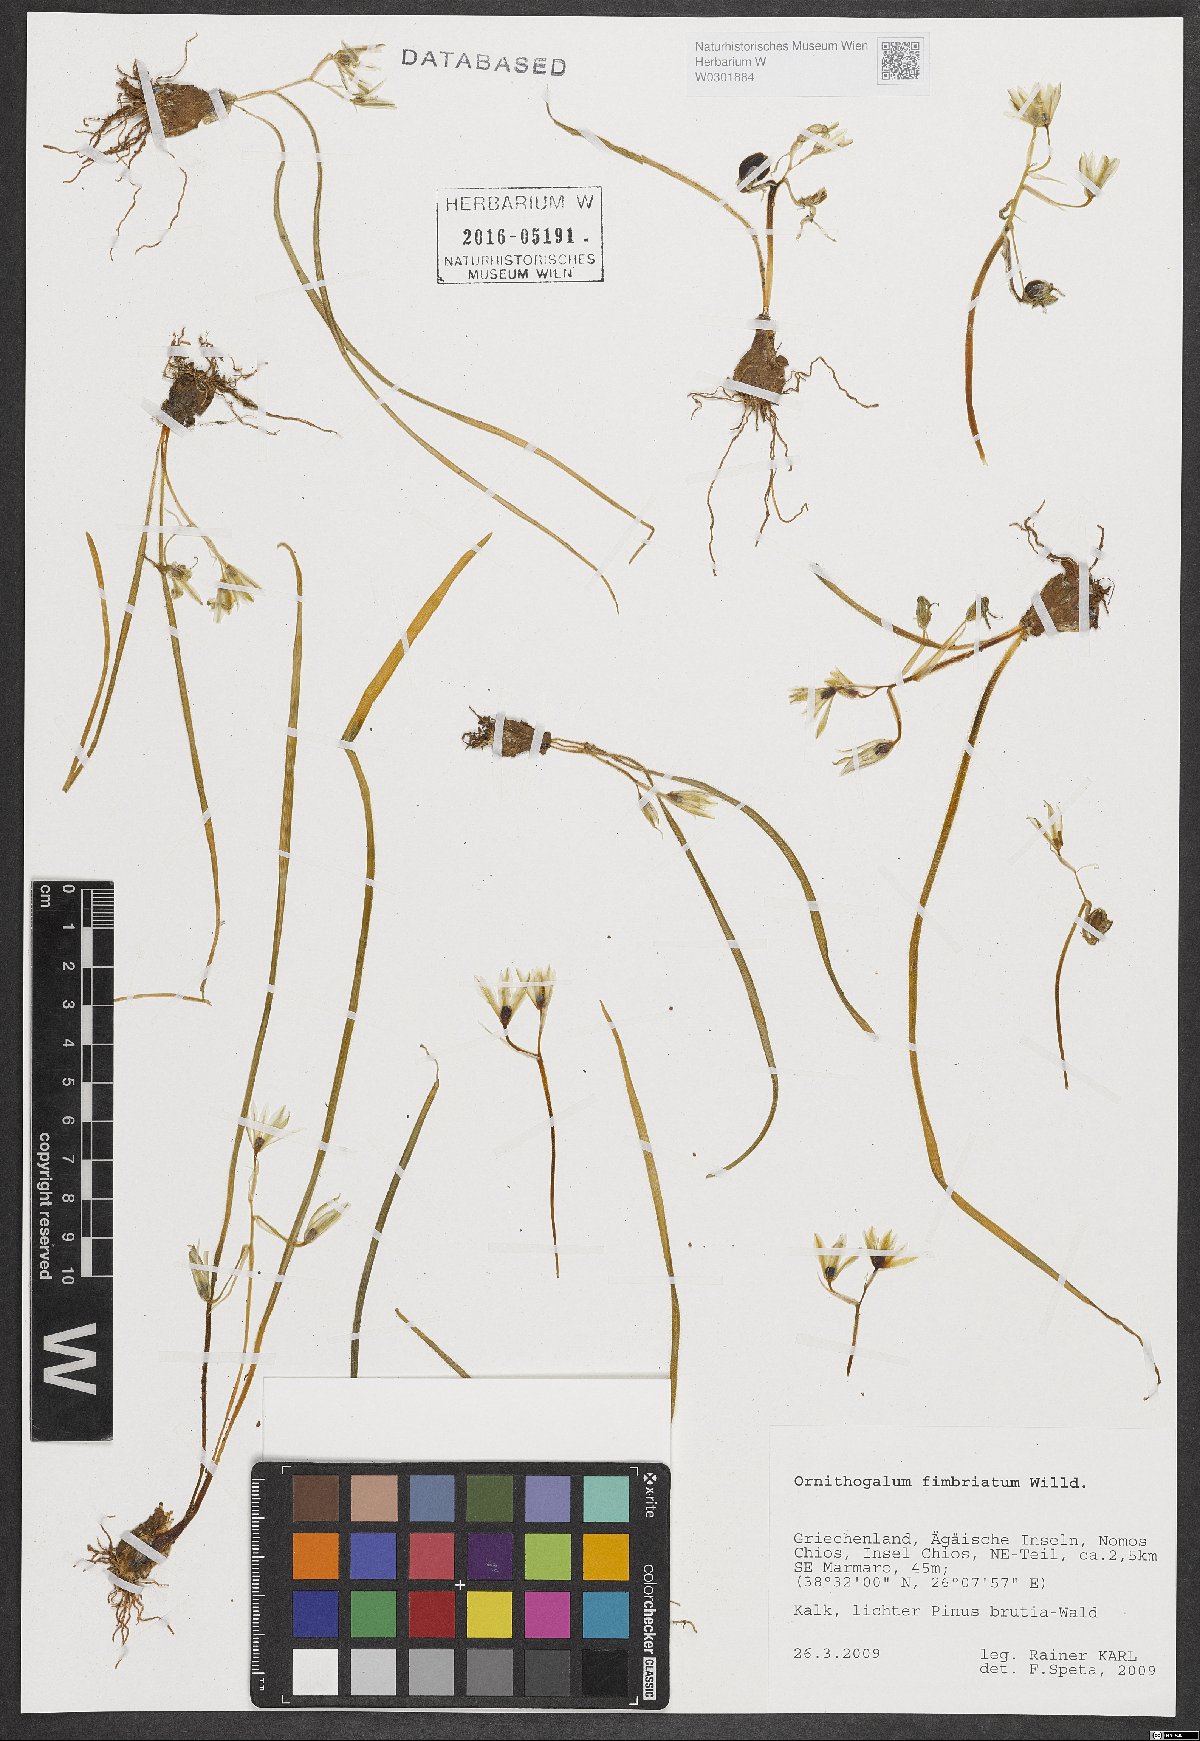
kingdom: Plantae
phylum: Tracheophyta
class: Liliopsida
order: Asparagales
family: Asparagaceae
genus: Ornithogalum
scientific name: Ornithogalum fimbriatum
